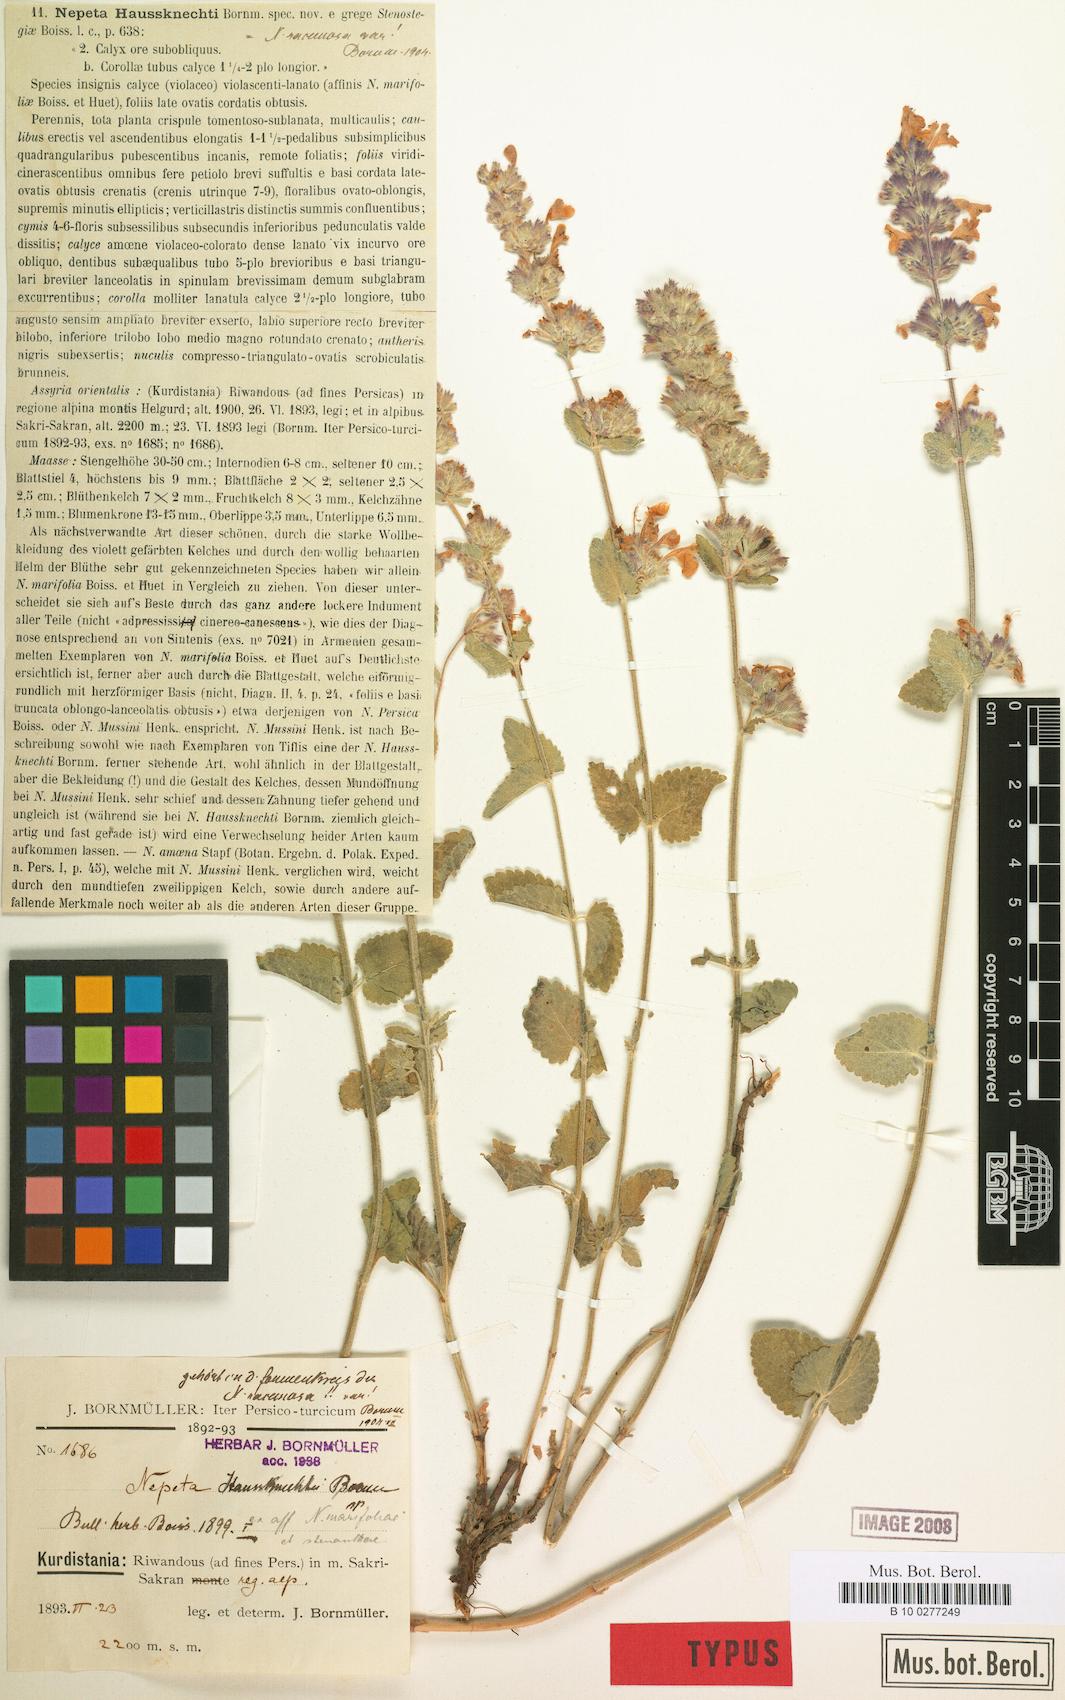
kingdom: Plantae
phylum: Tracheophyta
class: Magnoliopsida
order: Lamiales
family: Lamiaceae
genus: Nepeta
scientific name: Nepeta racemosa
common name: Raceme catnip
